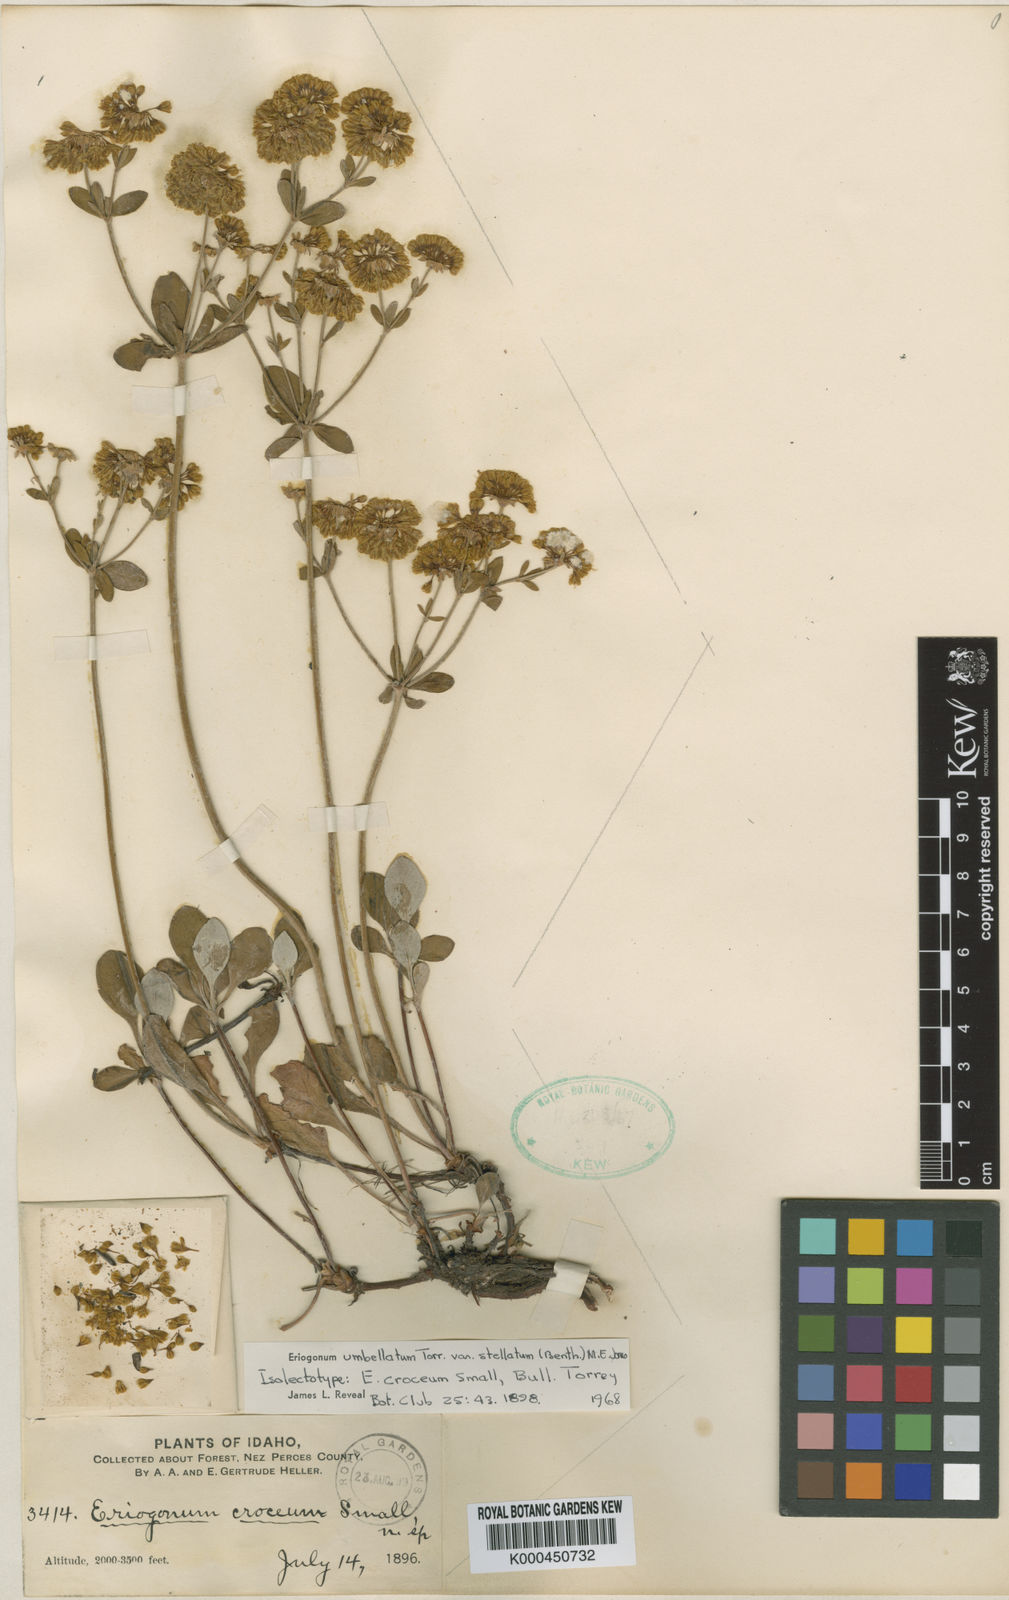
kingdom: Plantae
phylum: Tracheophyta
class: Magnoliopsida
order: Caryophyllales
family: Polygonaceae
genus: Eriogonum
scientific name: Eriogonum umbellatum
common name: Sulfur-buckwheat
